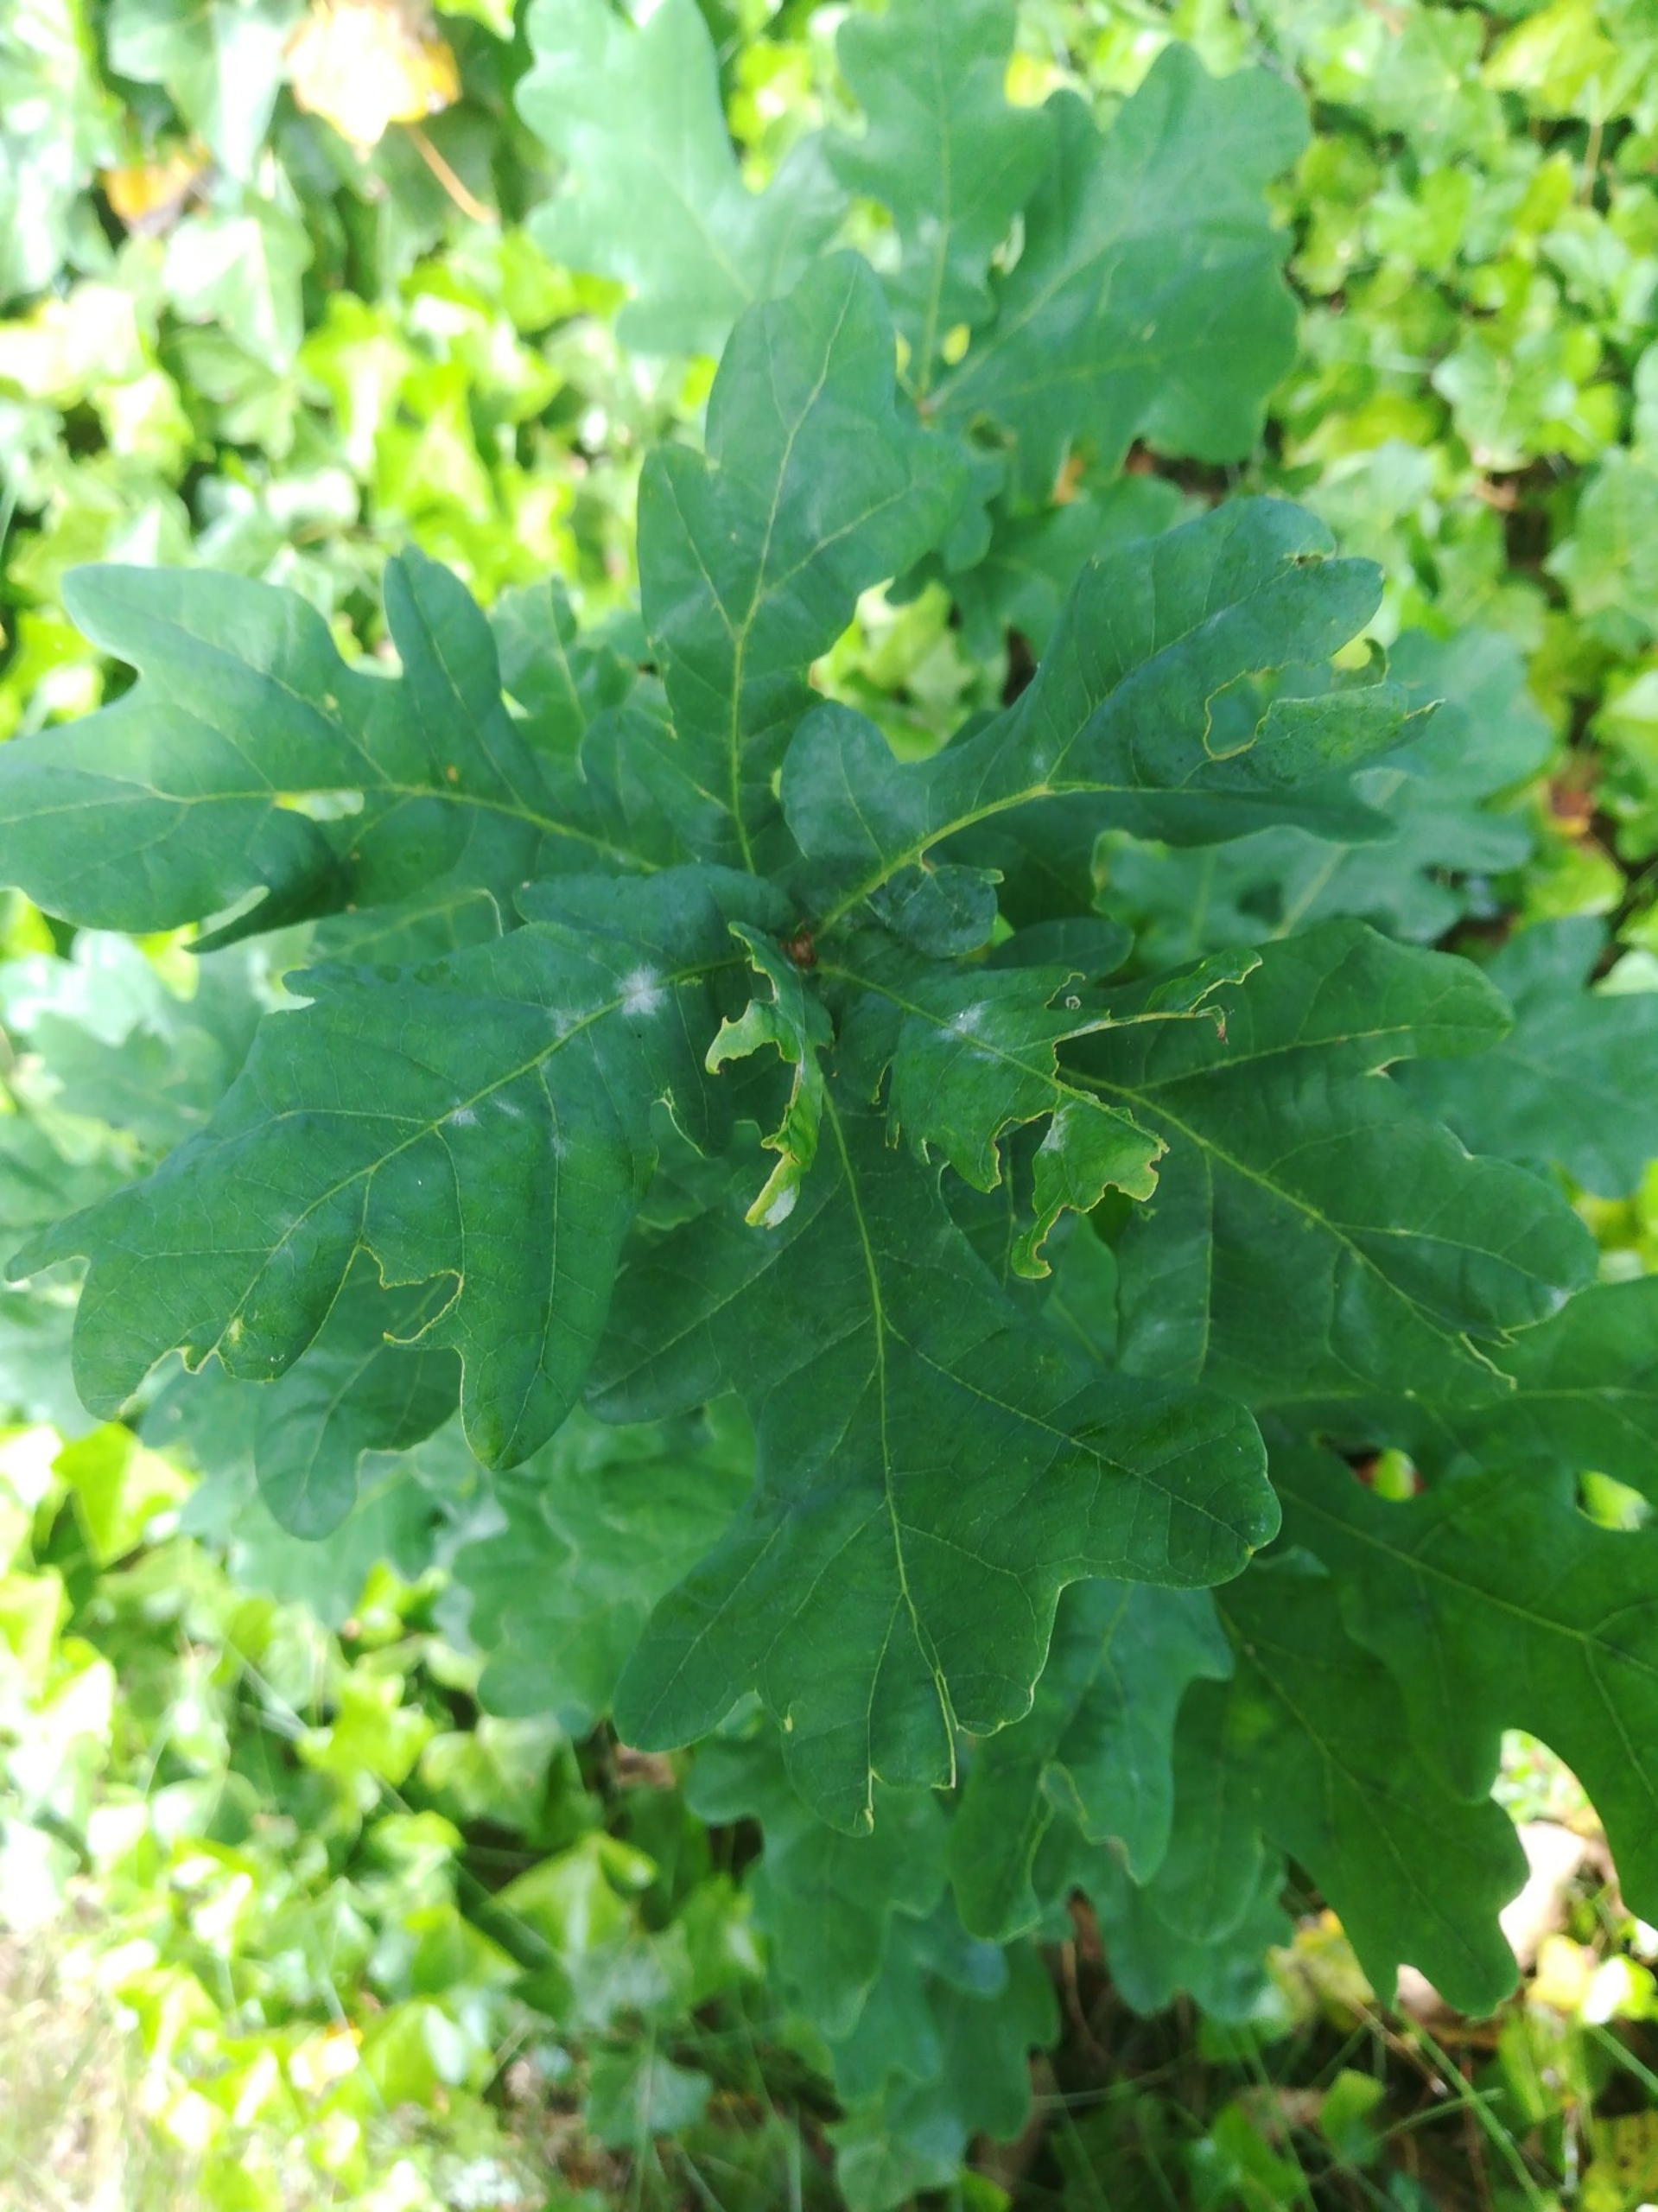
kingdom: Plantae
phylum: Tracheophyta
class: Magnoliopsida
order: Fagales
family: Fagaceae
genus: Quercus
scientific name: Quercus robur
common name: Stilk-eg/almindelig eg
